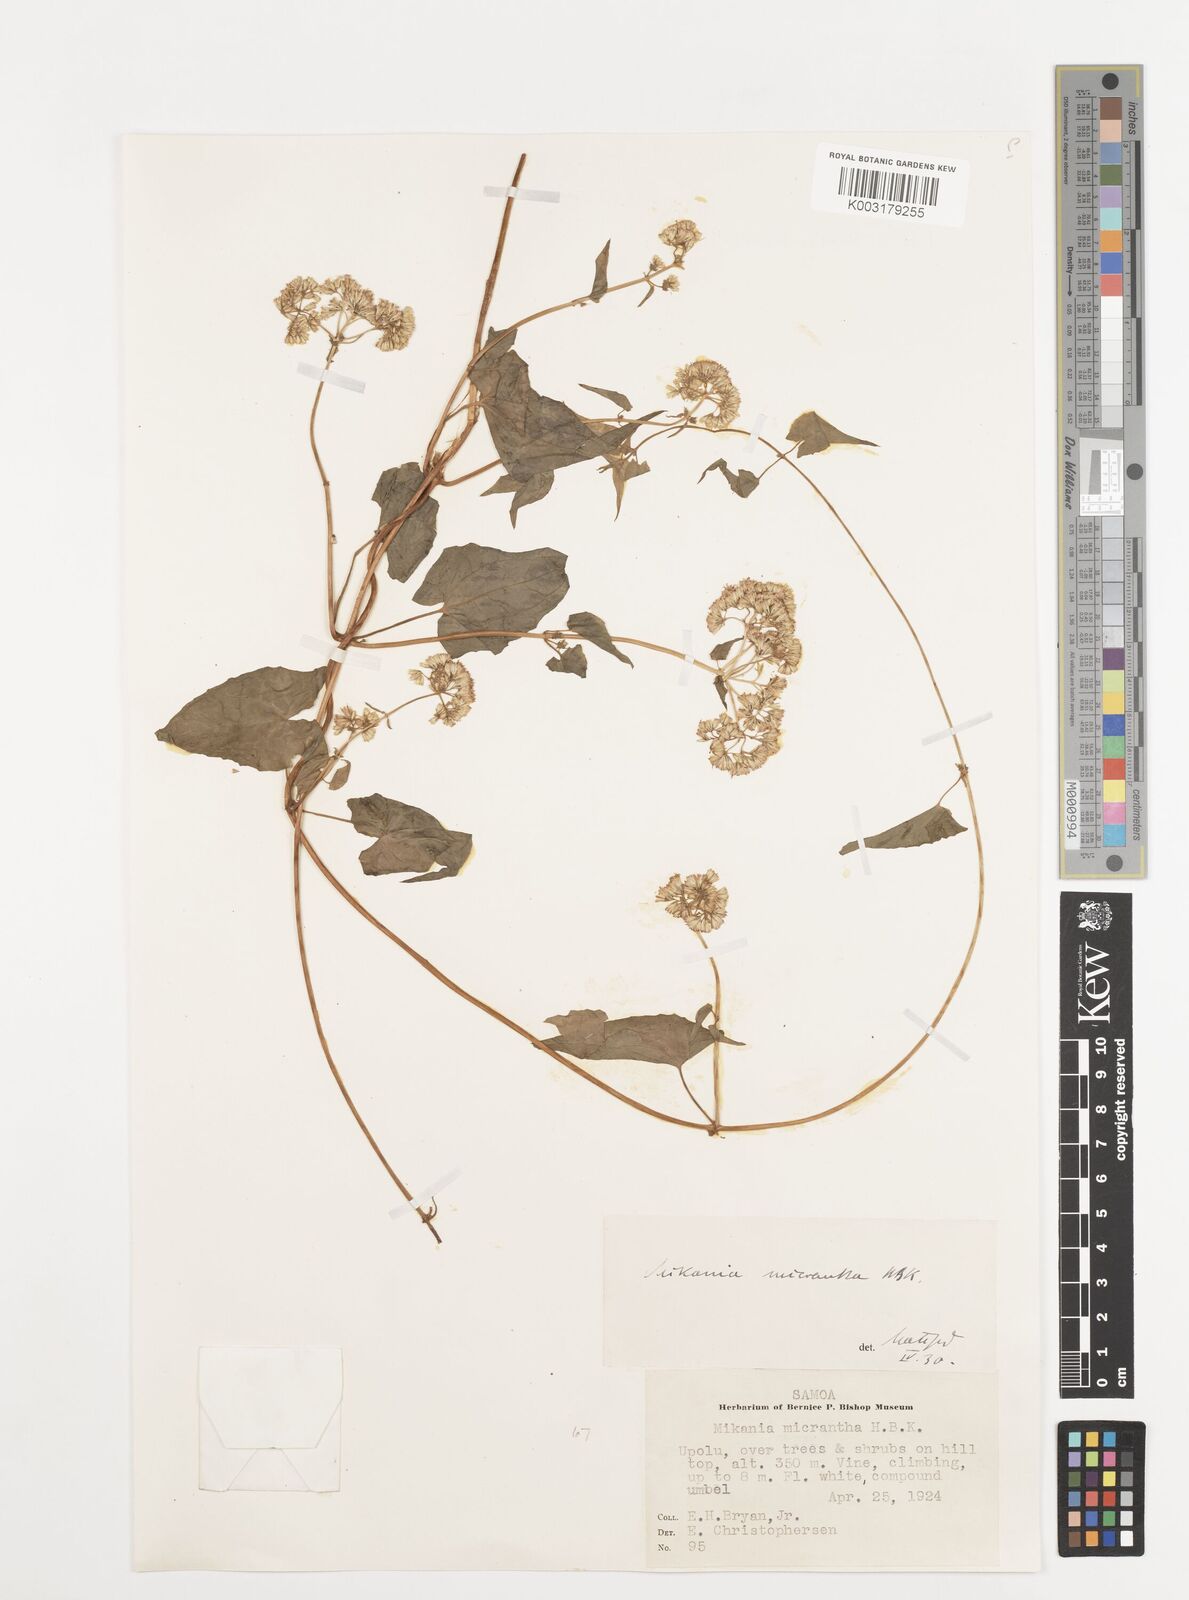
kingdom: Plantae
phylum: Tracheophyta
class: Magnoliopsida
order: Asterales
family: Asteraceae
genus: Mikania
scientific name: Mikania micrantha
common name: Mile-a-minute
